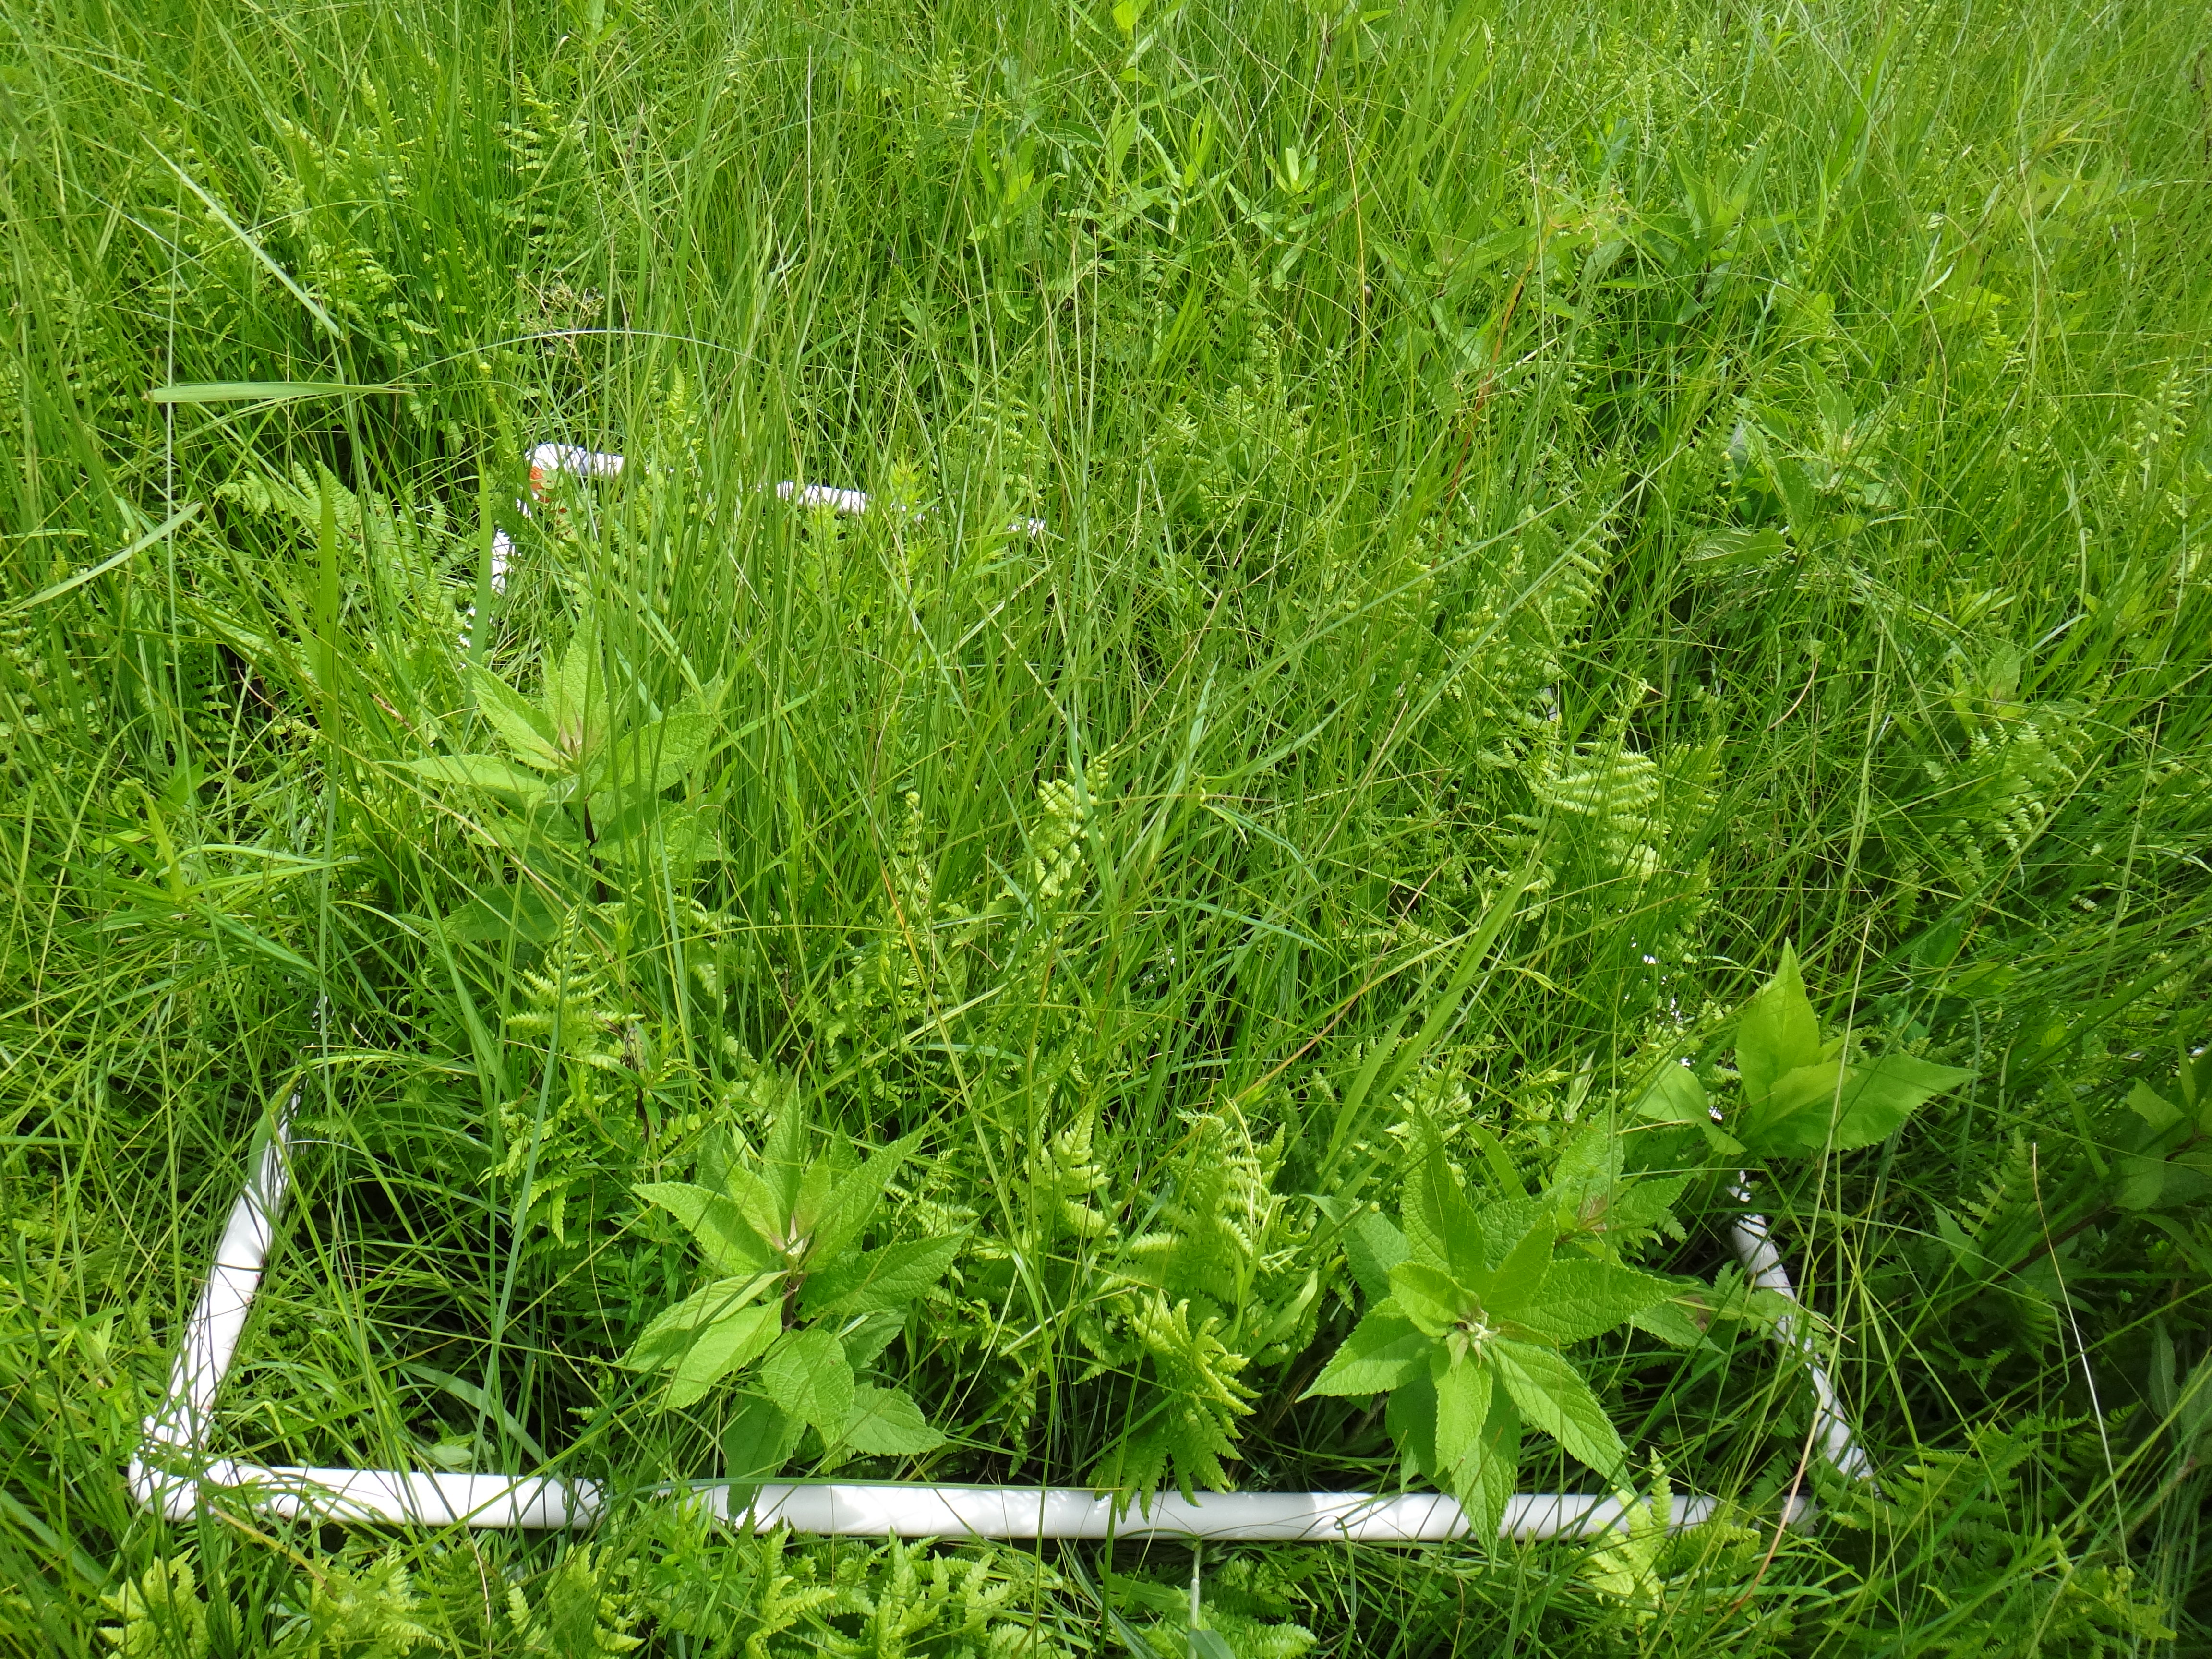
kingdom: Plantae
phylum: Tracheophyta
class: Polypodiopsida
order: Polypodiales
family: Thelypteridaceae
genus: Thelypteris
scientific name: Thelypteris palustris
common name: Marsh fern
